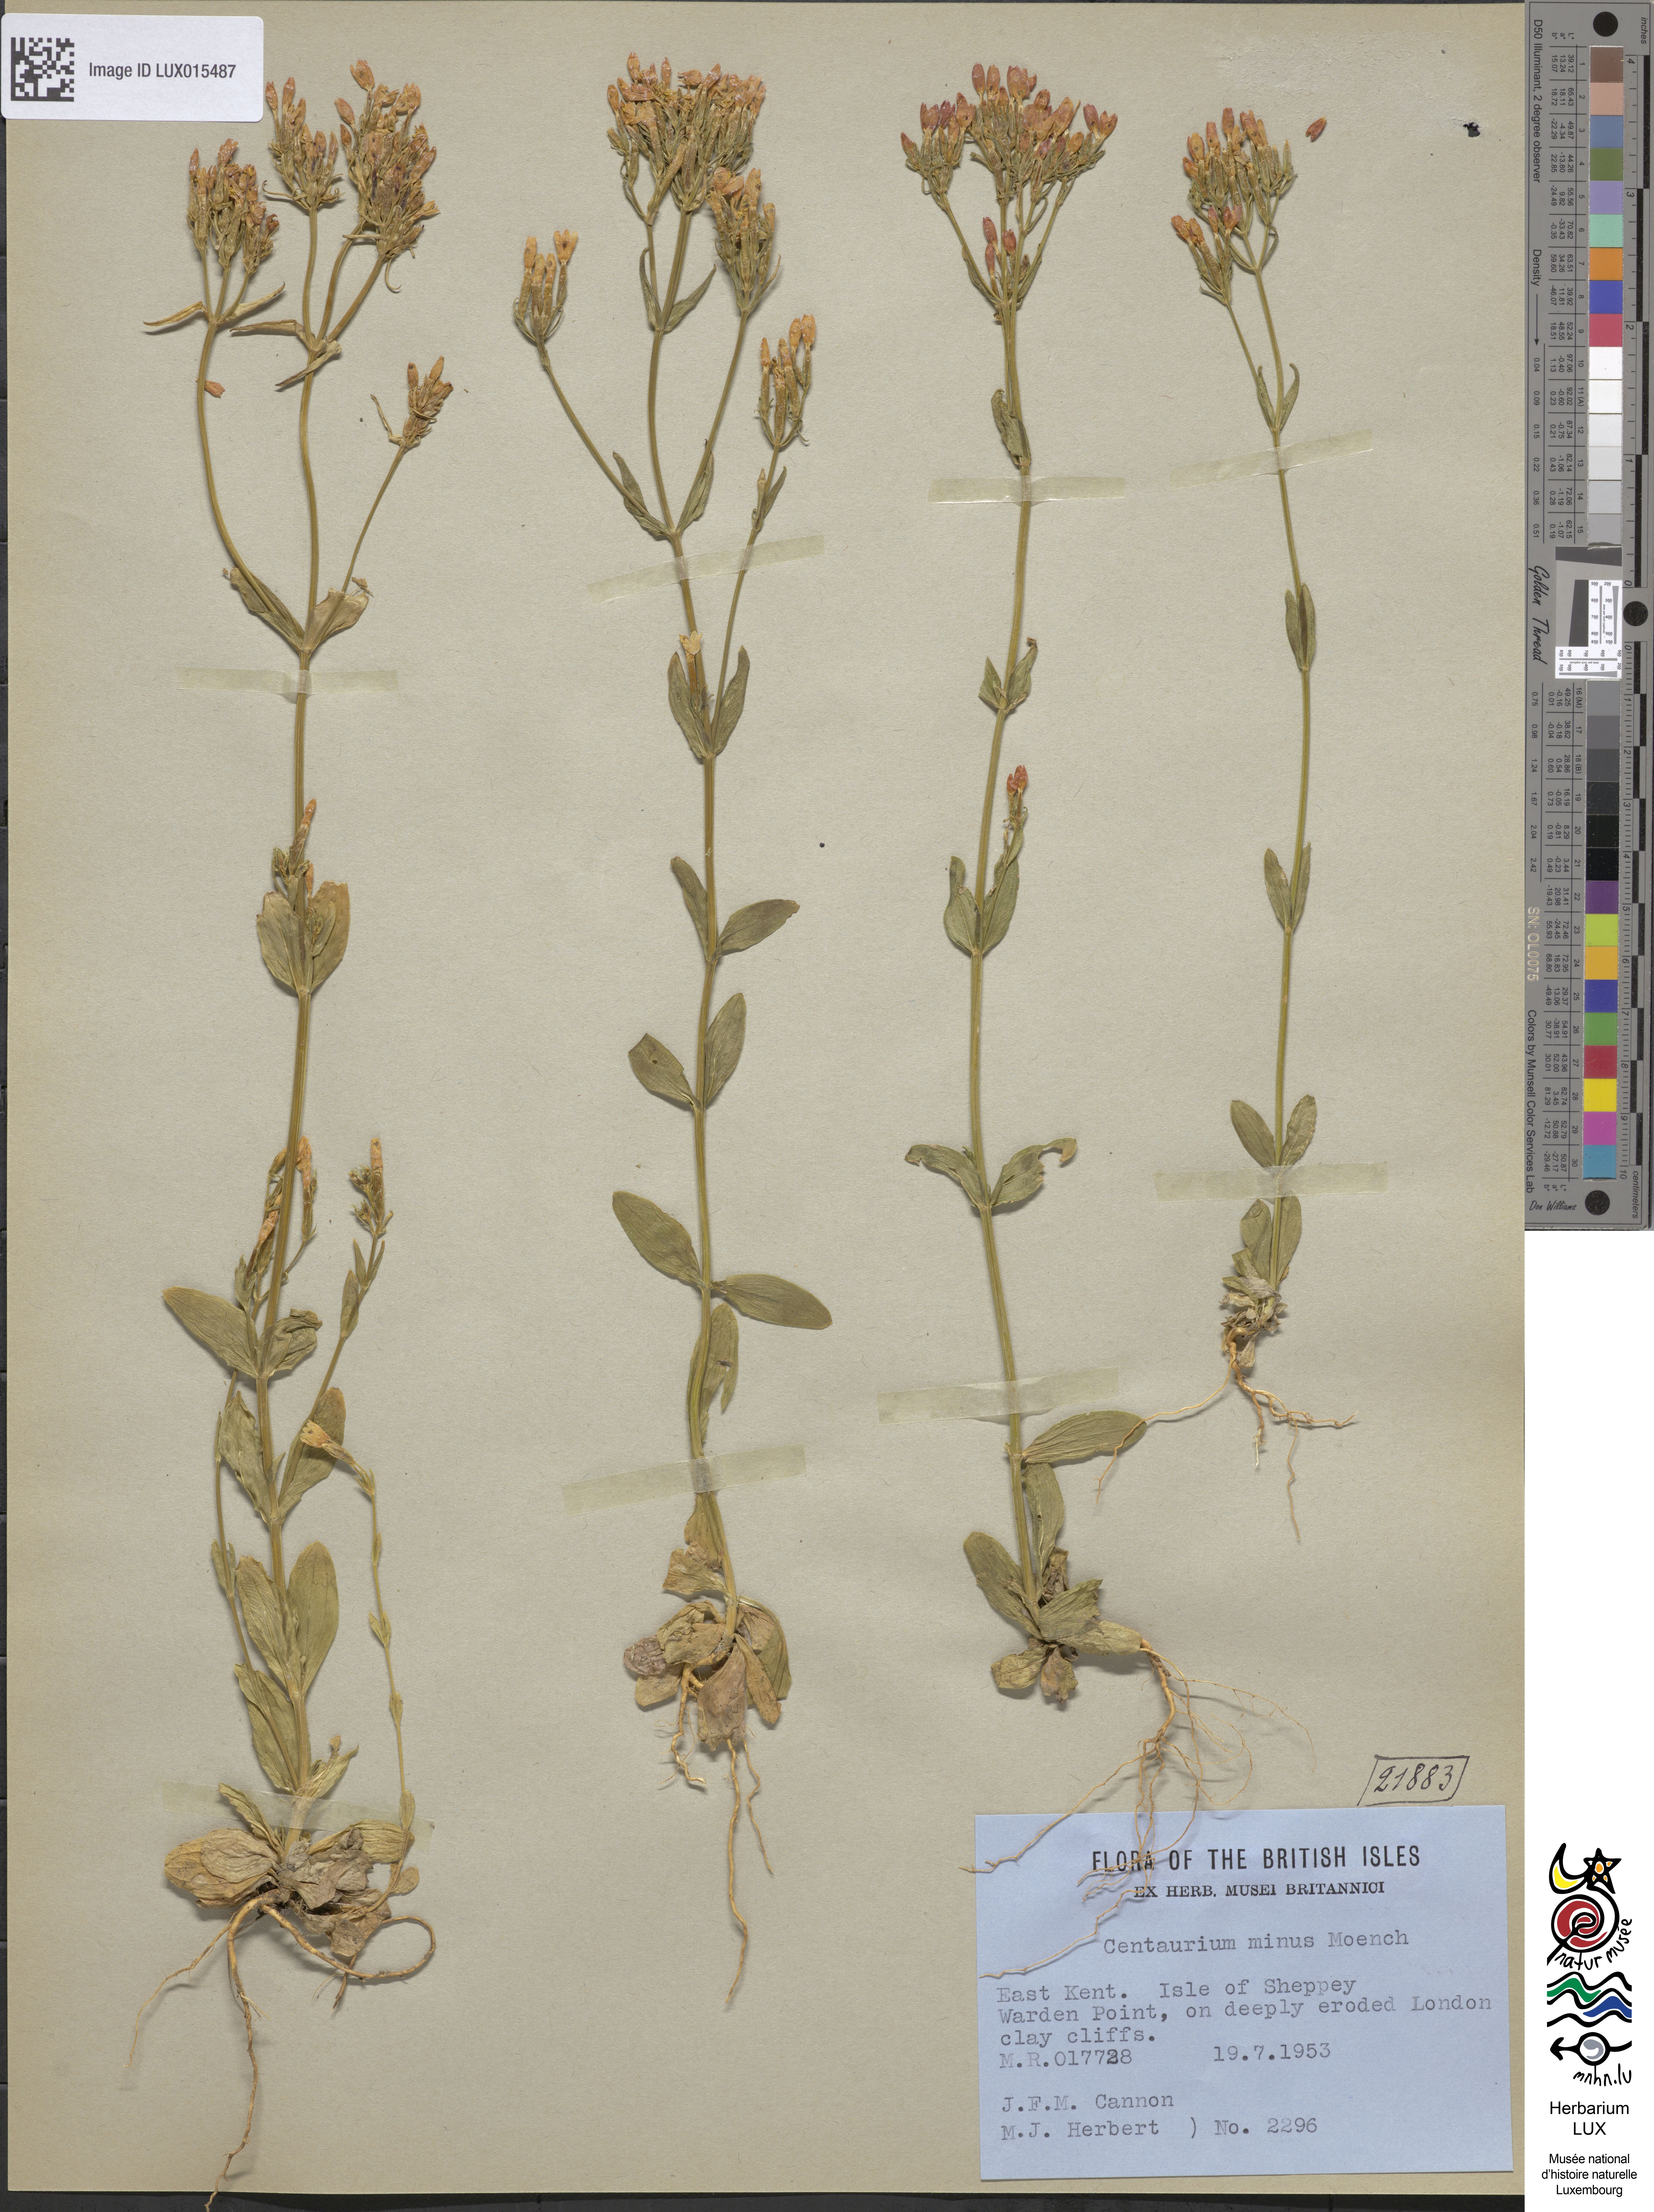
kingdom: Plantae
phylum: Tracheophyta
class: Magnoliopsida
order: Gentianales
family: Gentianaceae
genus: Centaurium
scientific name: Centaurium erythraea
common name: Common centaury
